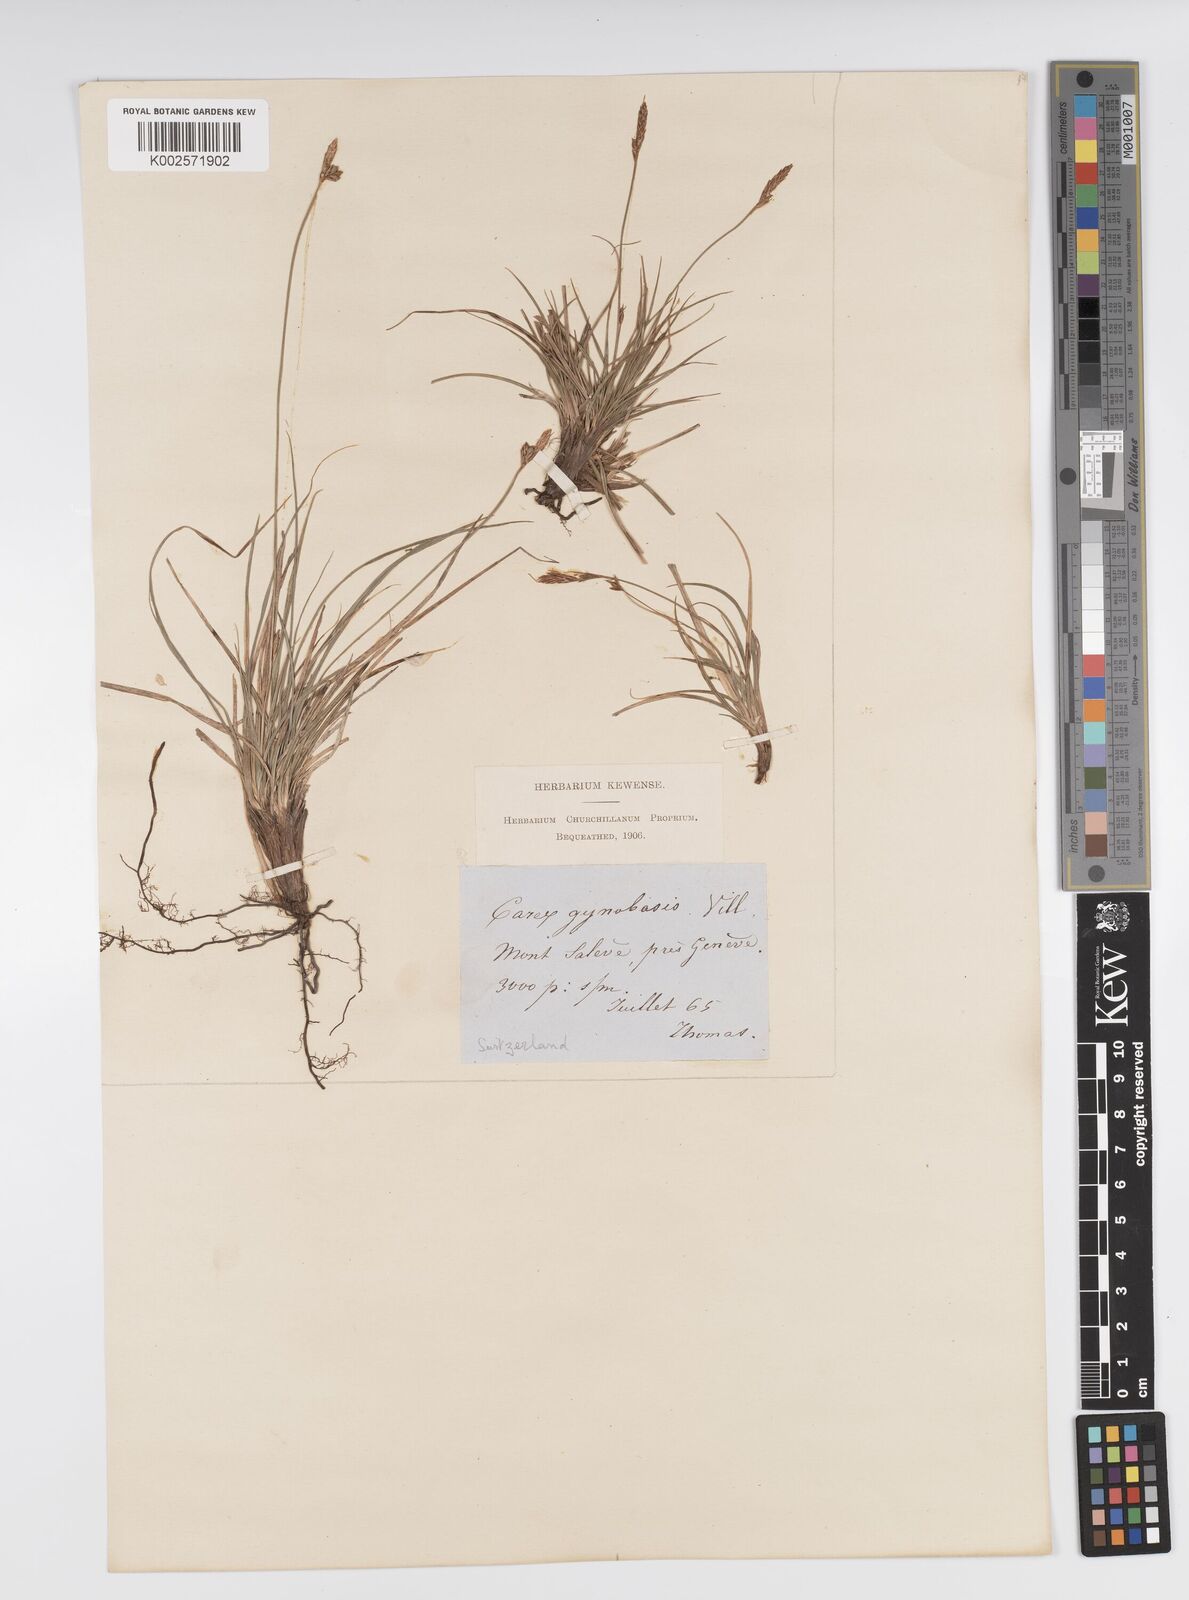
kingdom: Plantae
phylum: Tracheophyta
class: Liliopsida
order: Poales
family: Cyperaceae
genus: Carex
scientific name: Carex halleriana
